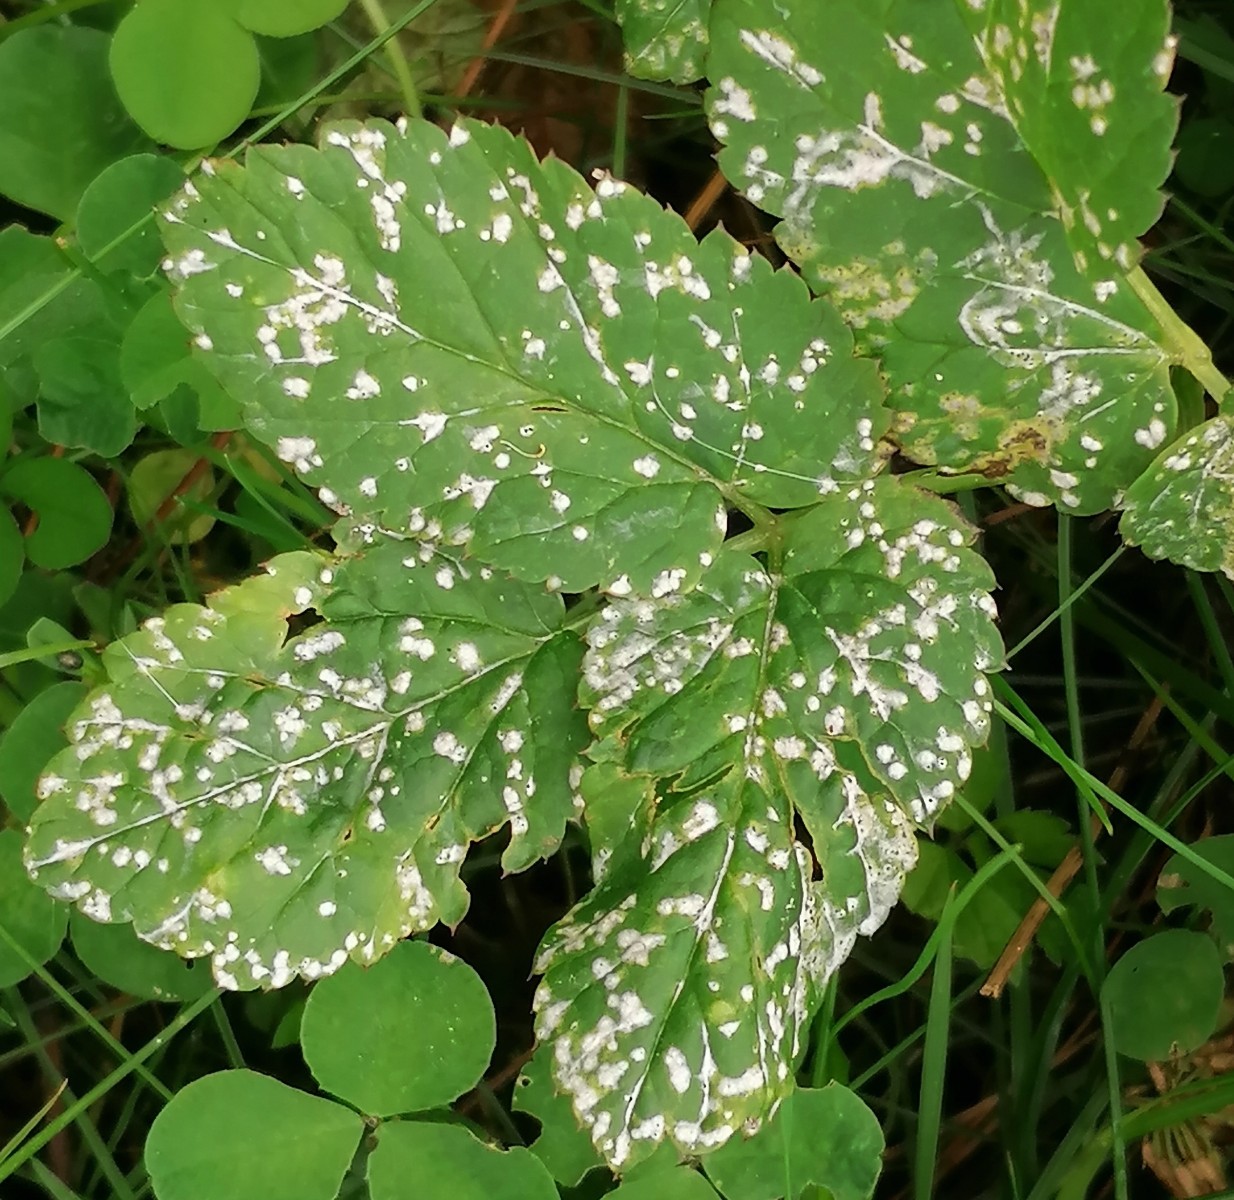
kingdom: Fungi
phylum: Ascomycota
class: Dothideomycetes
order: Mycosphaerellales
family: Mycosphaerellaceae
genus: Mycosphaerella
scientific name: Mycosphaerella podagrariae
